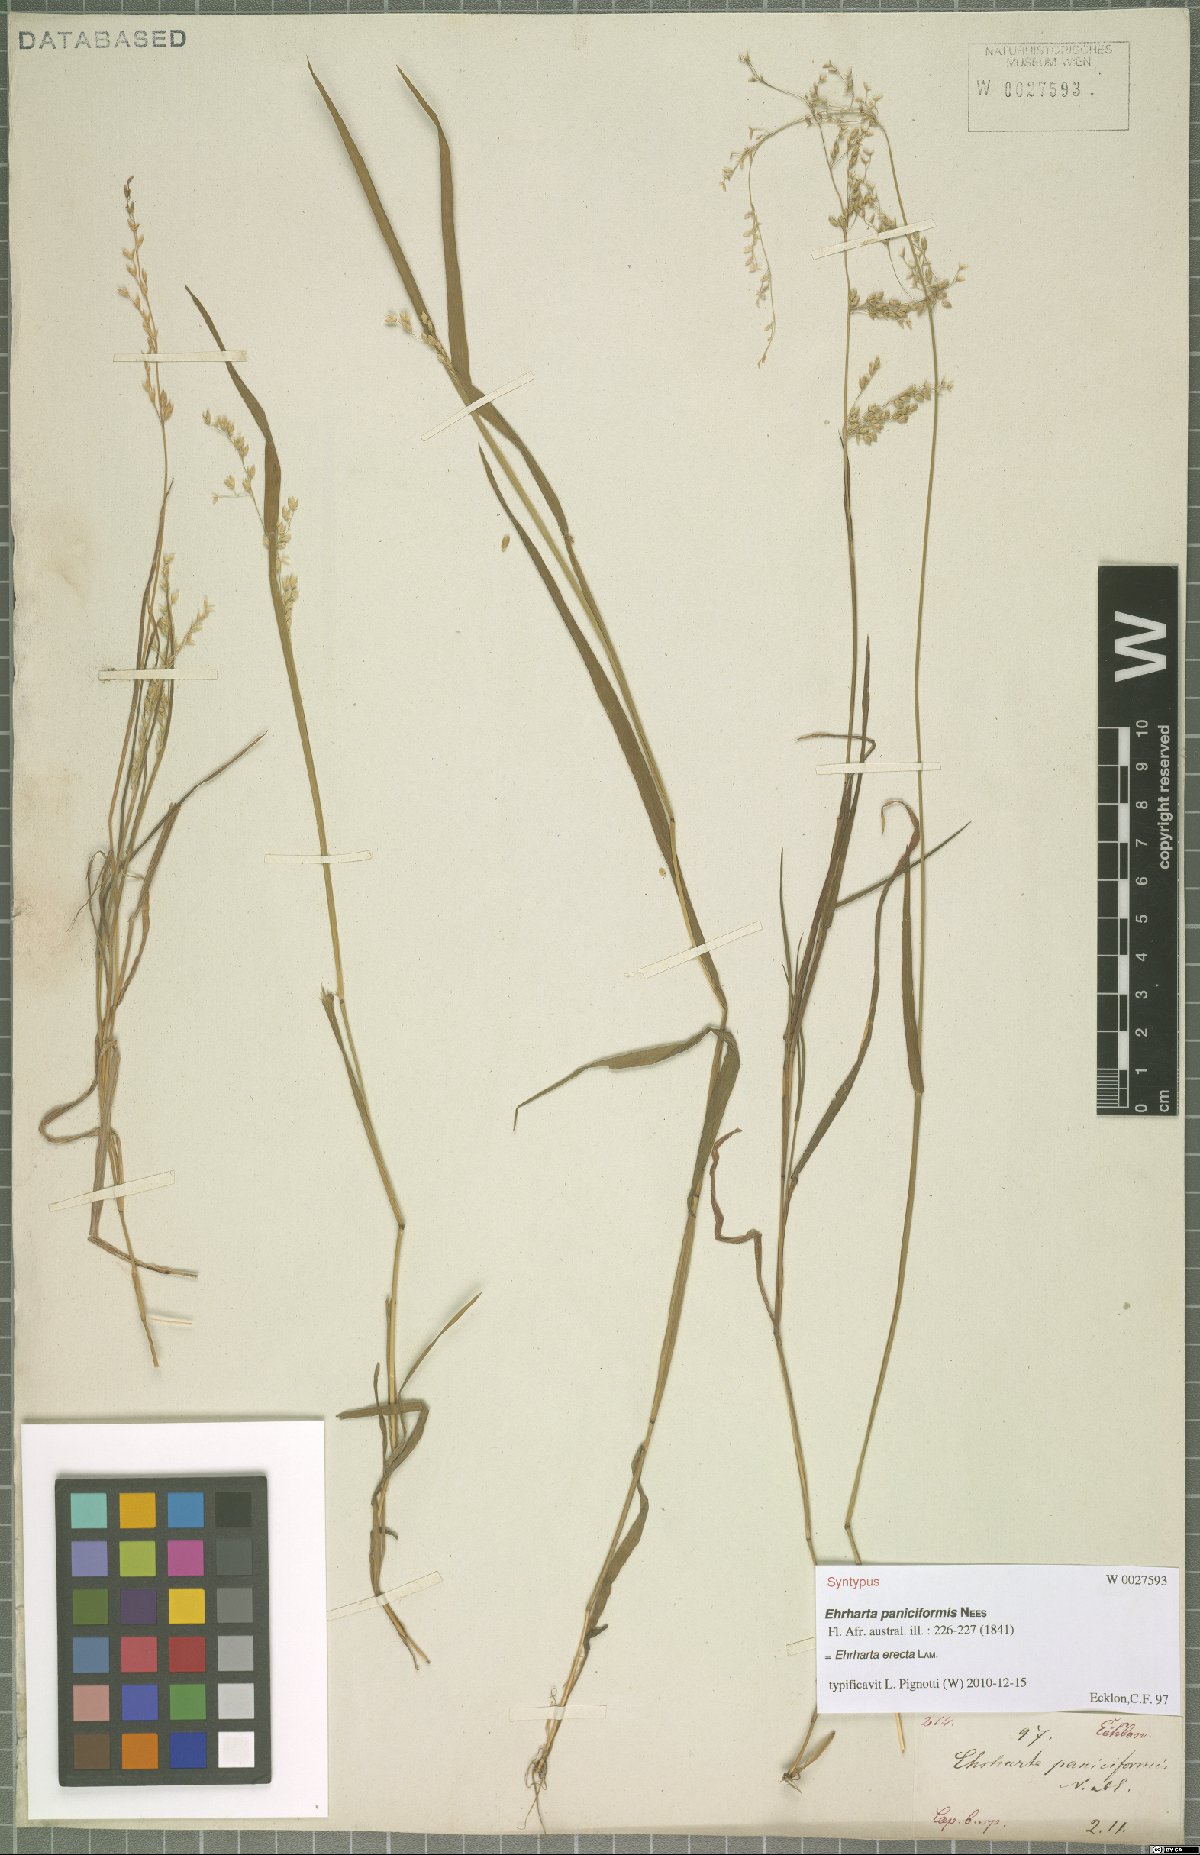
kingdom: Plantae
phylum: Tracheophyta
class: Liliopsida
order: Poales
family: Poaceae
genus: Ehrharta
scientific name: Ehrharta erecta
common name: Panic veldtgrass
